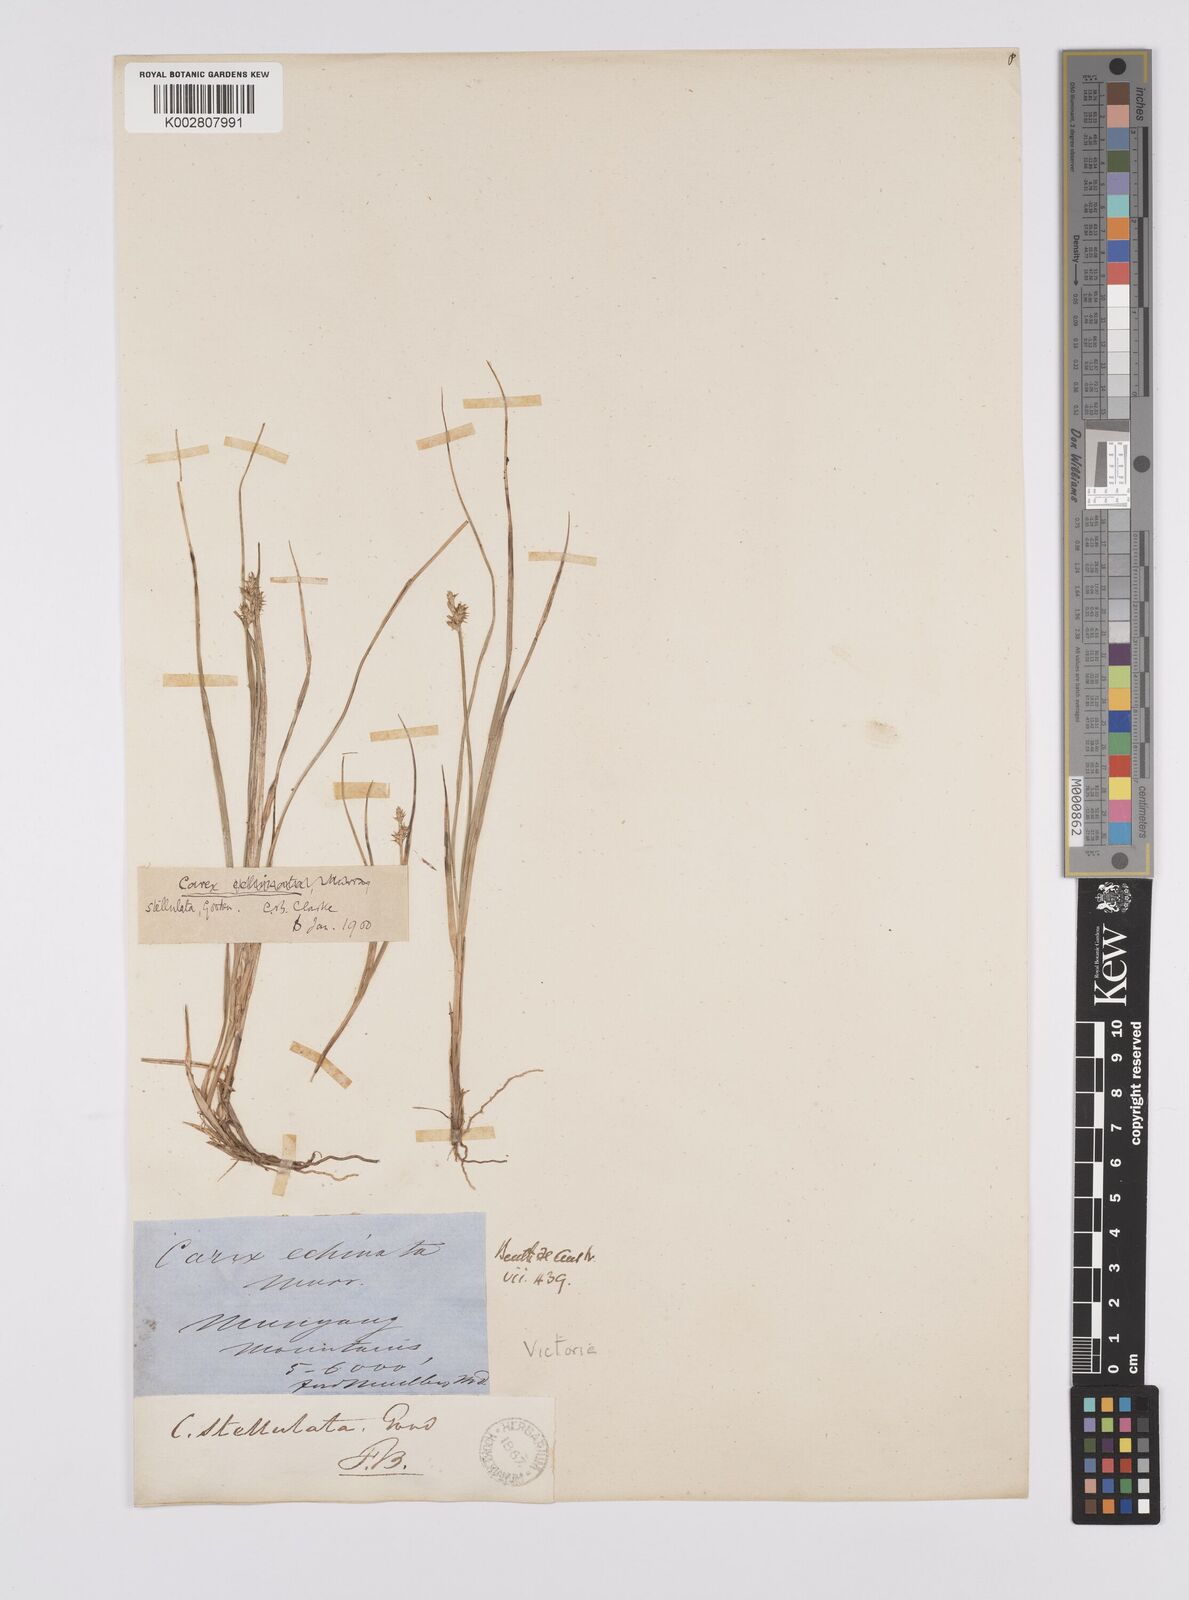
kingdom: Plantae
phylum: Tracheophyta
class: Liliopsida
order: Poales
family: Cyperaceae
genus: Carex
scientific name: Carex echinata
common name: Star sedge
